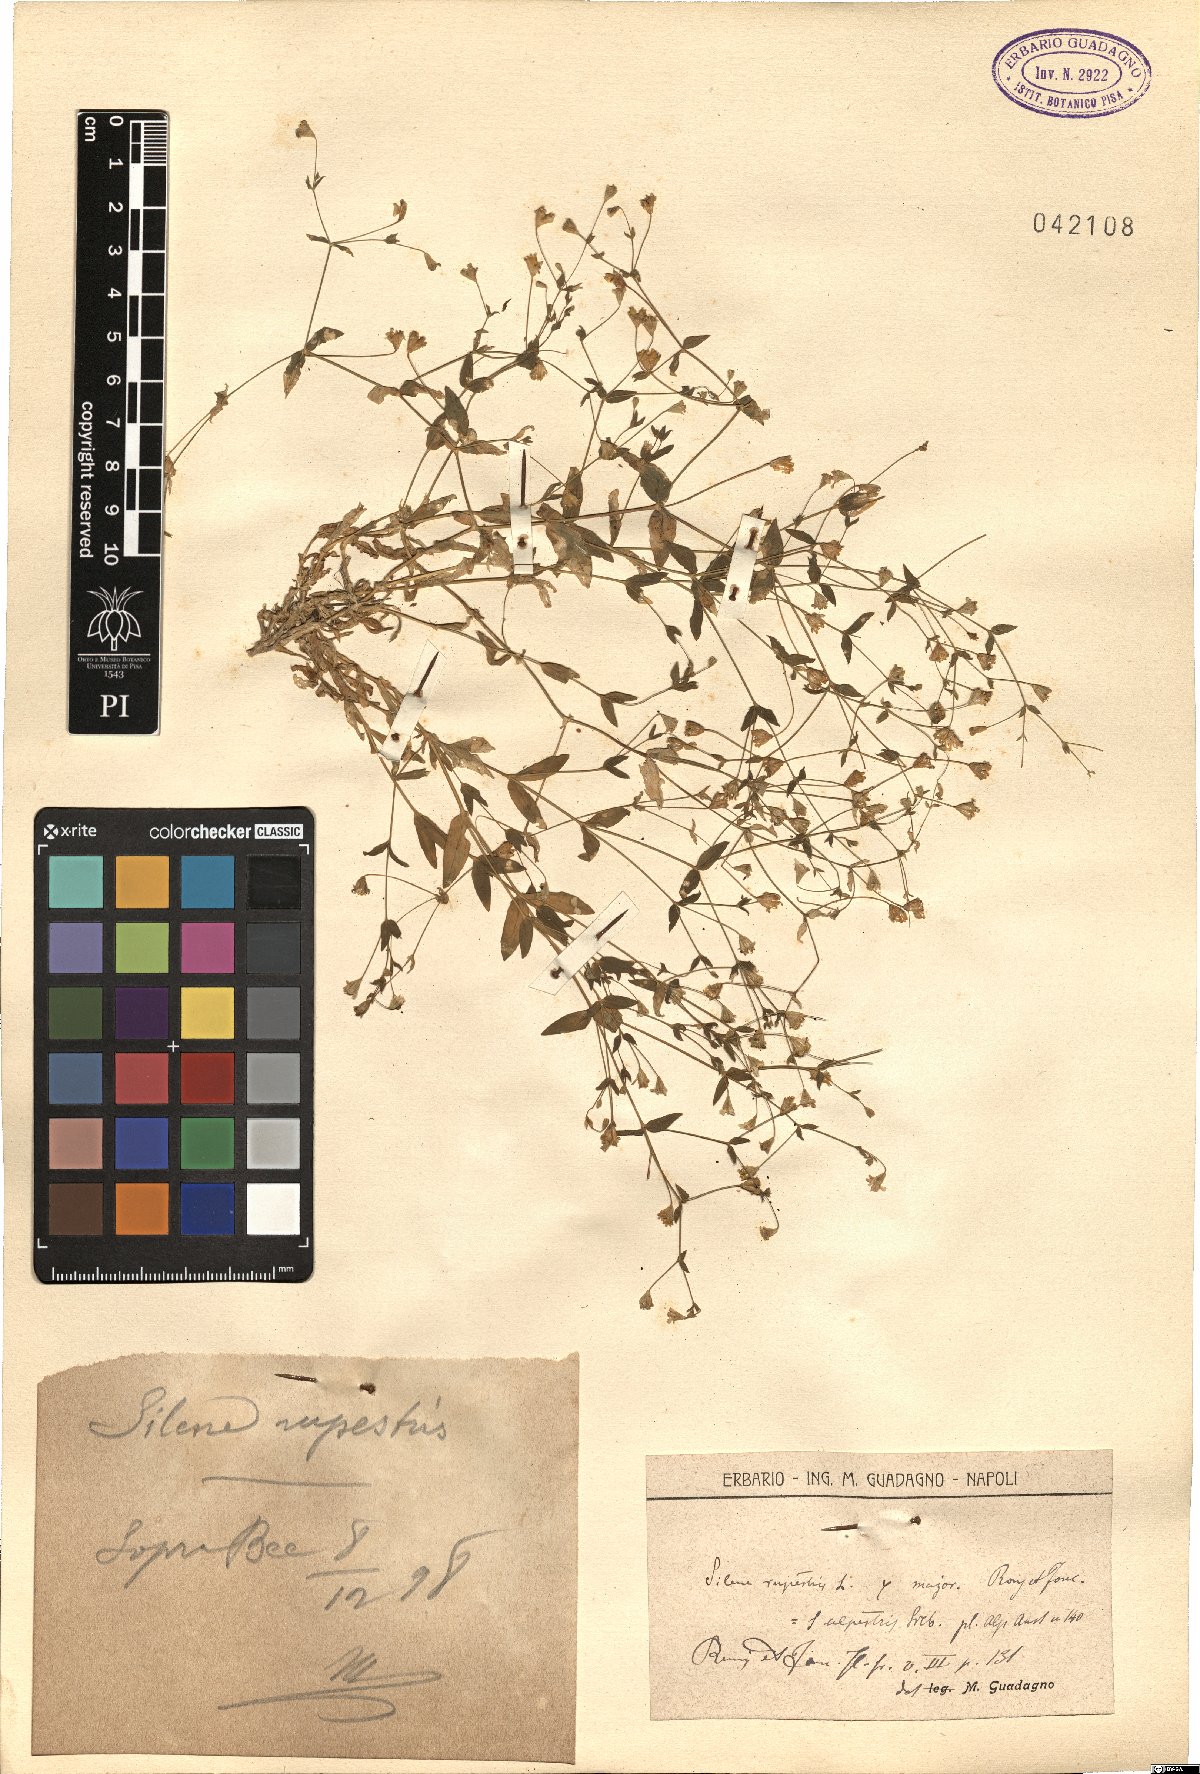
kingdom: Plantae
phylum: Tracheophyta
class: Magnoliopsida
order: Caryophyllales
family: Caryophyllaceae
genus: Atocion
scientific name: Atocion rupestre
